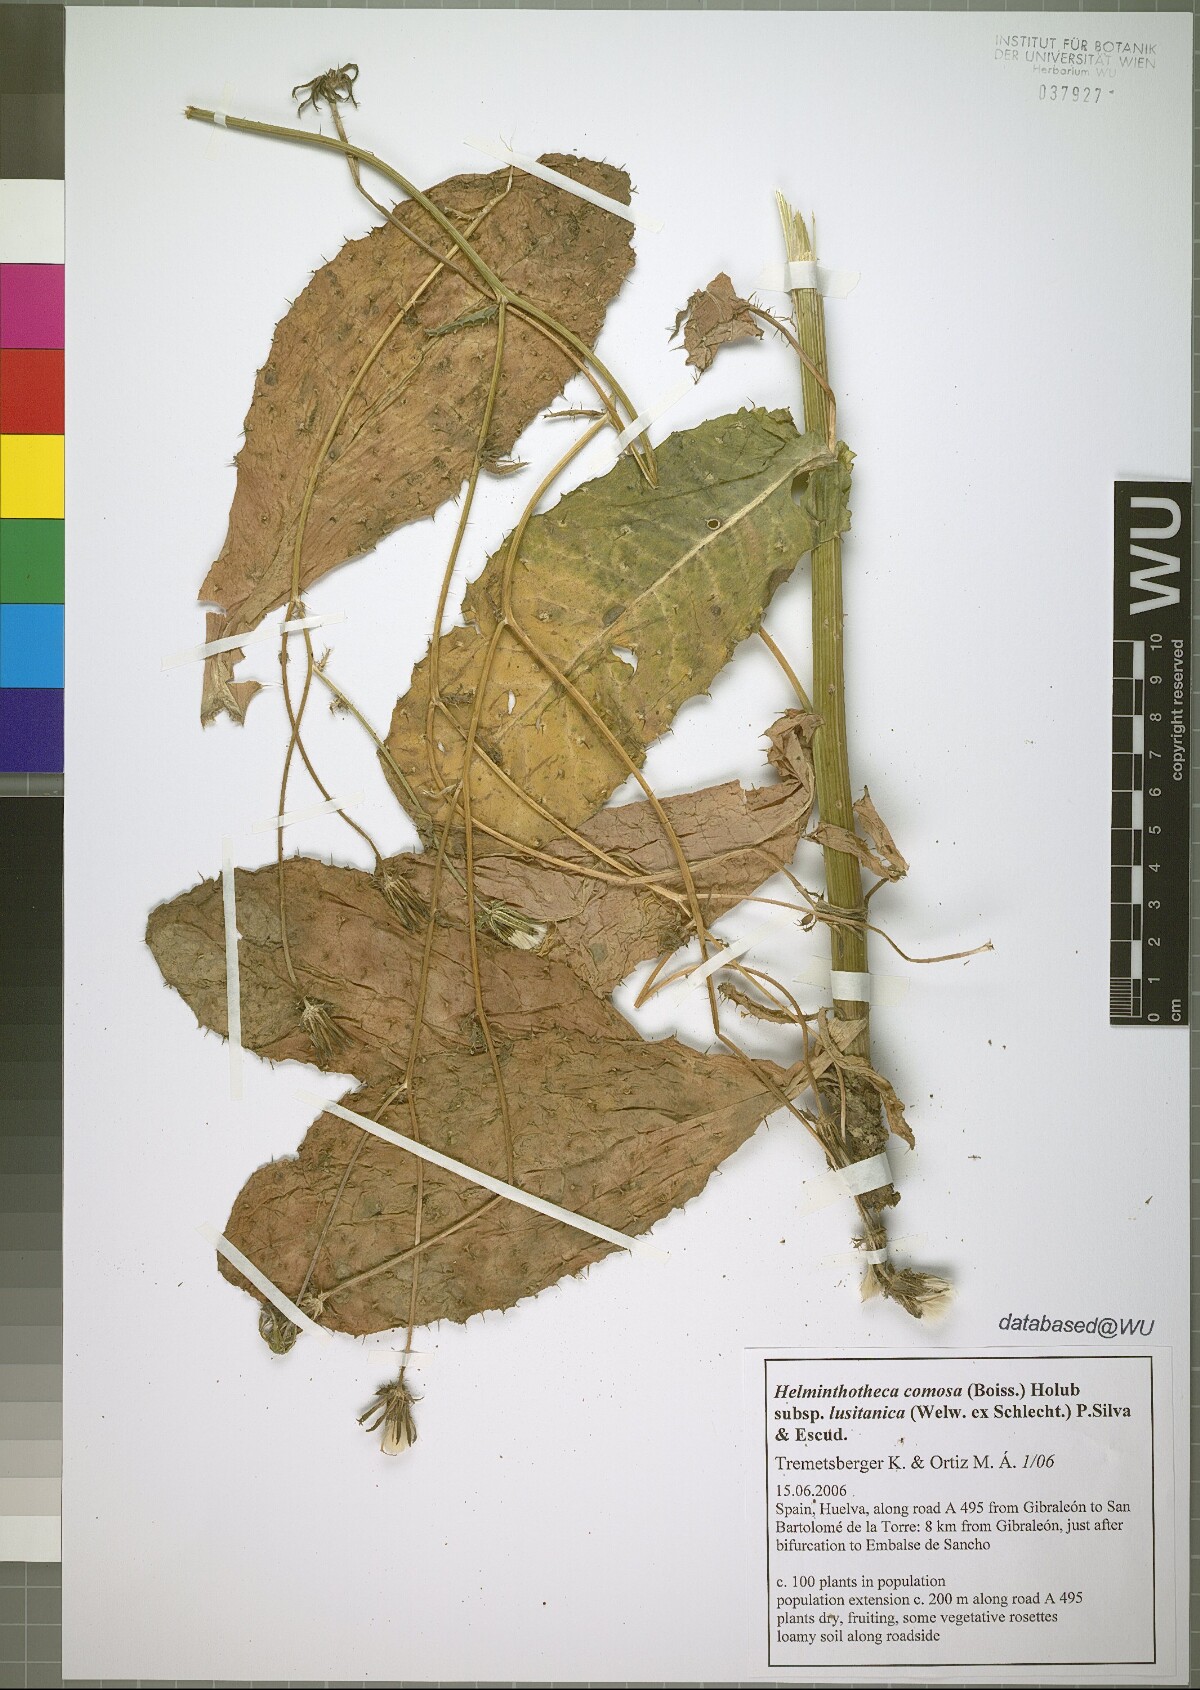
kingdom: Plantae
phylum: Tracheophyta
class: Magnoliopsida
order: Asterales
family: Asteraceae
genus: Helminthotheca
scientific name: Helminthotheca spinosa
